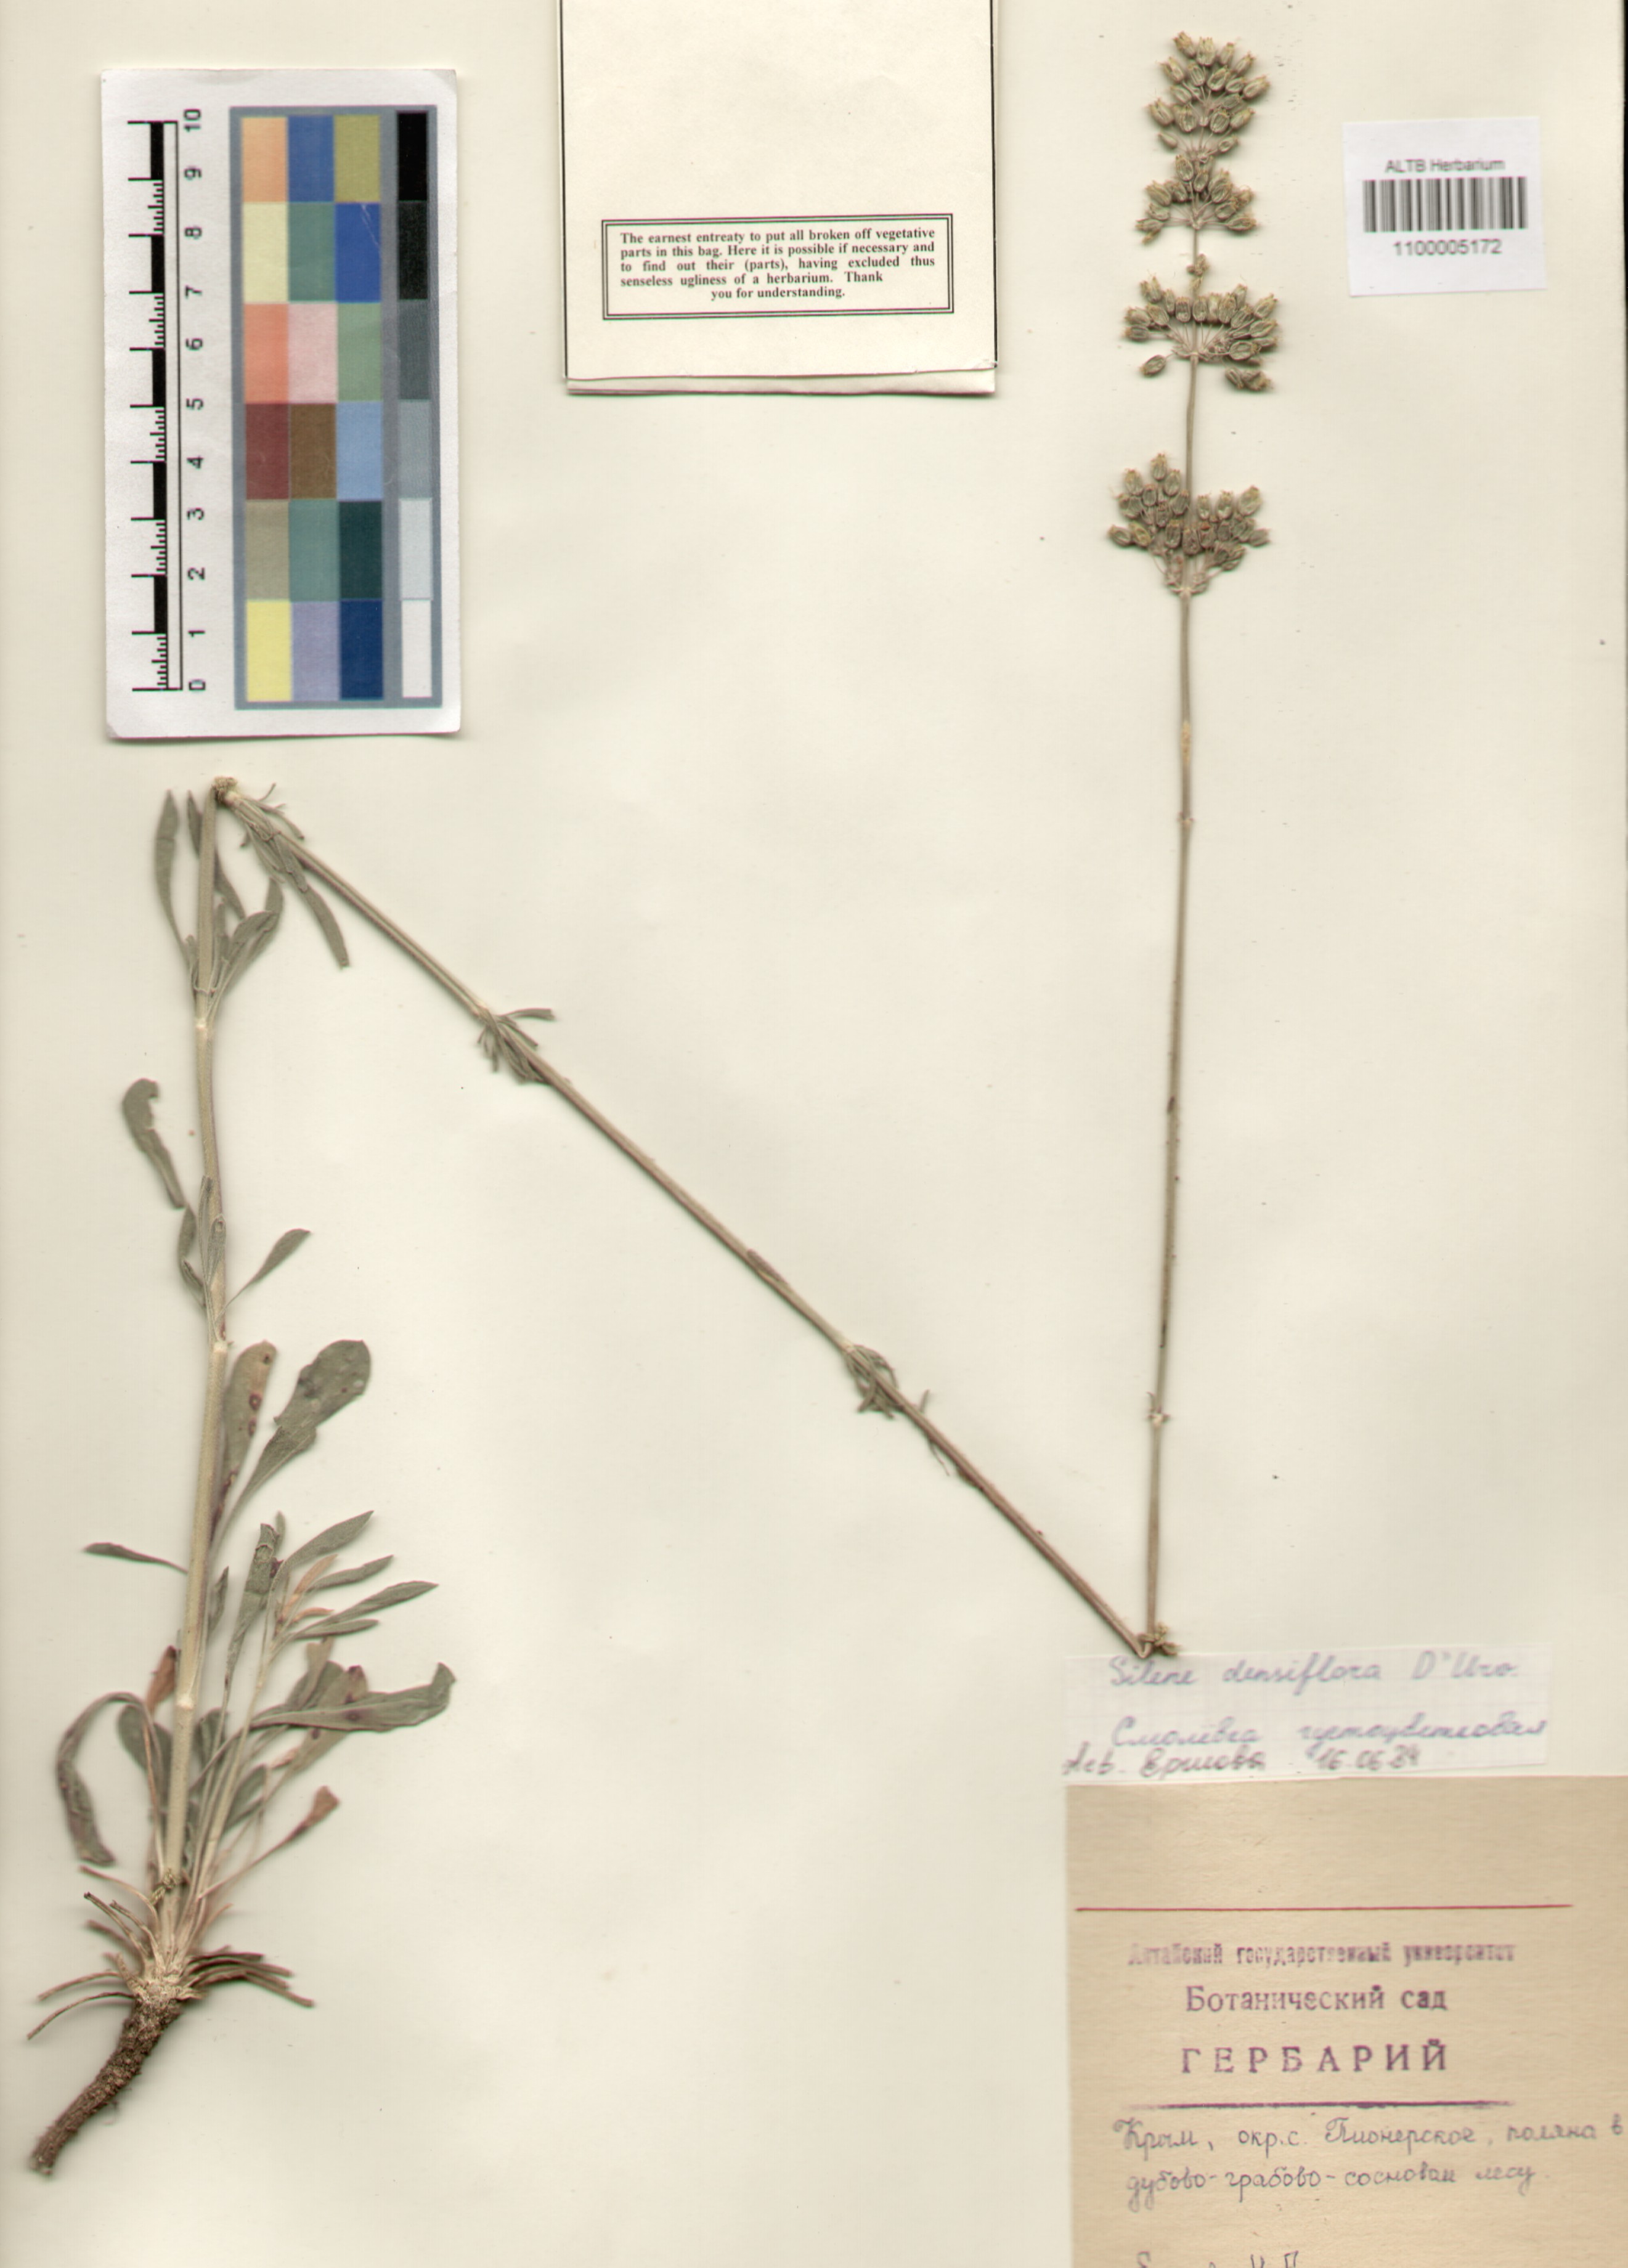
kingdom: Plantae
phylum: Tracheophyta
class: Magnoliopsida
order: Caryophyllales
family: Caryophyllaceae
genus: Silene
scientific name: Silene densiflora
